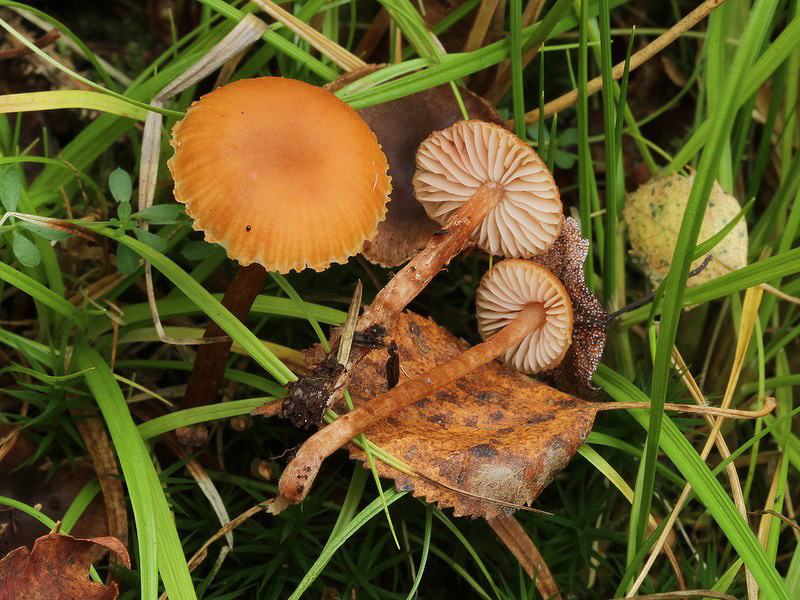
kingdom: Fungi
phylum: Basidiomycota
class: Agaricomycetes
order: Agaricales
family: Hydnangiaceae
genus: Laccaria
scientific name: Laccaria proxima
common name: stor ametysthat
